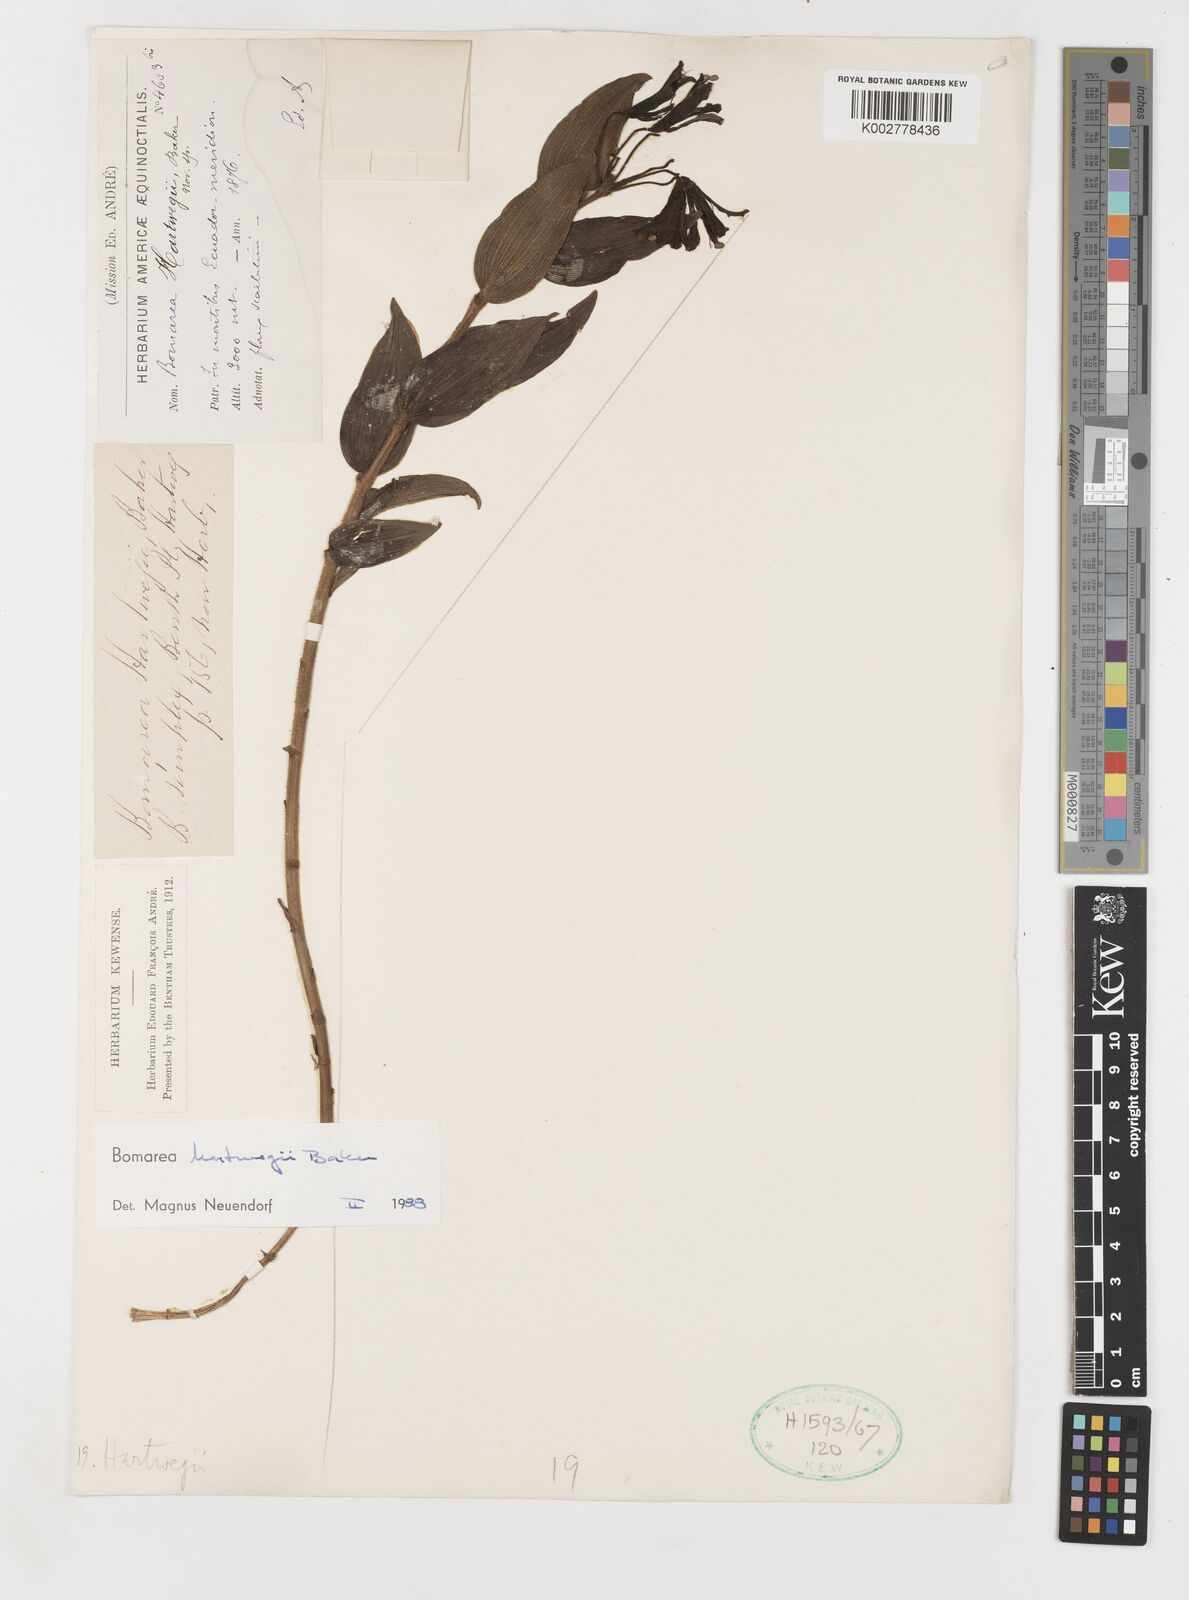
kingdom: Plantae
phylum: Tracheophyta
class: Liliopsida
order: Liliales
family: Alstroemeriaceae
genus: Bomarea
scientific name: Bomarea hartwegii
